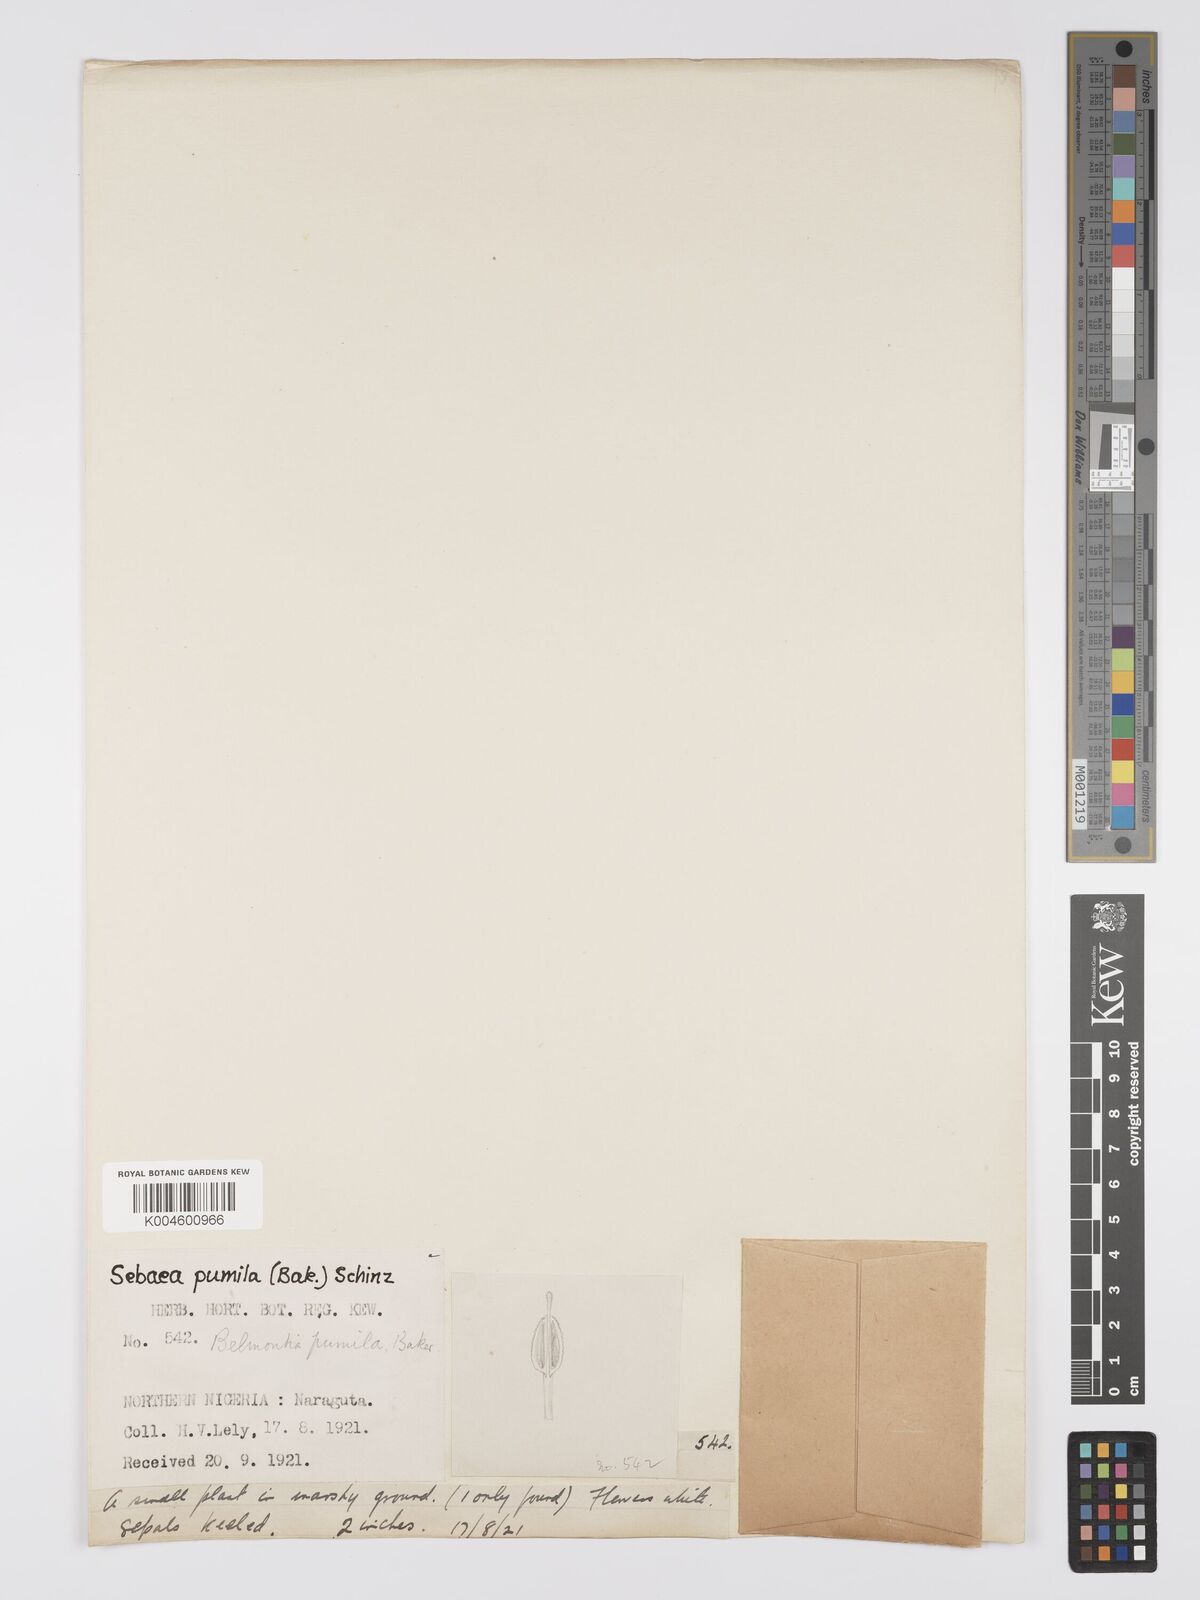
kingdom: Plantae
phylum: Tracheophyta
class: Magnoliopsida
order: Gentianales
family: Gentianaceae
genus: Exochaenium
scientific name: Exochaenium pumilum
